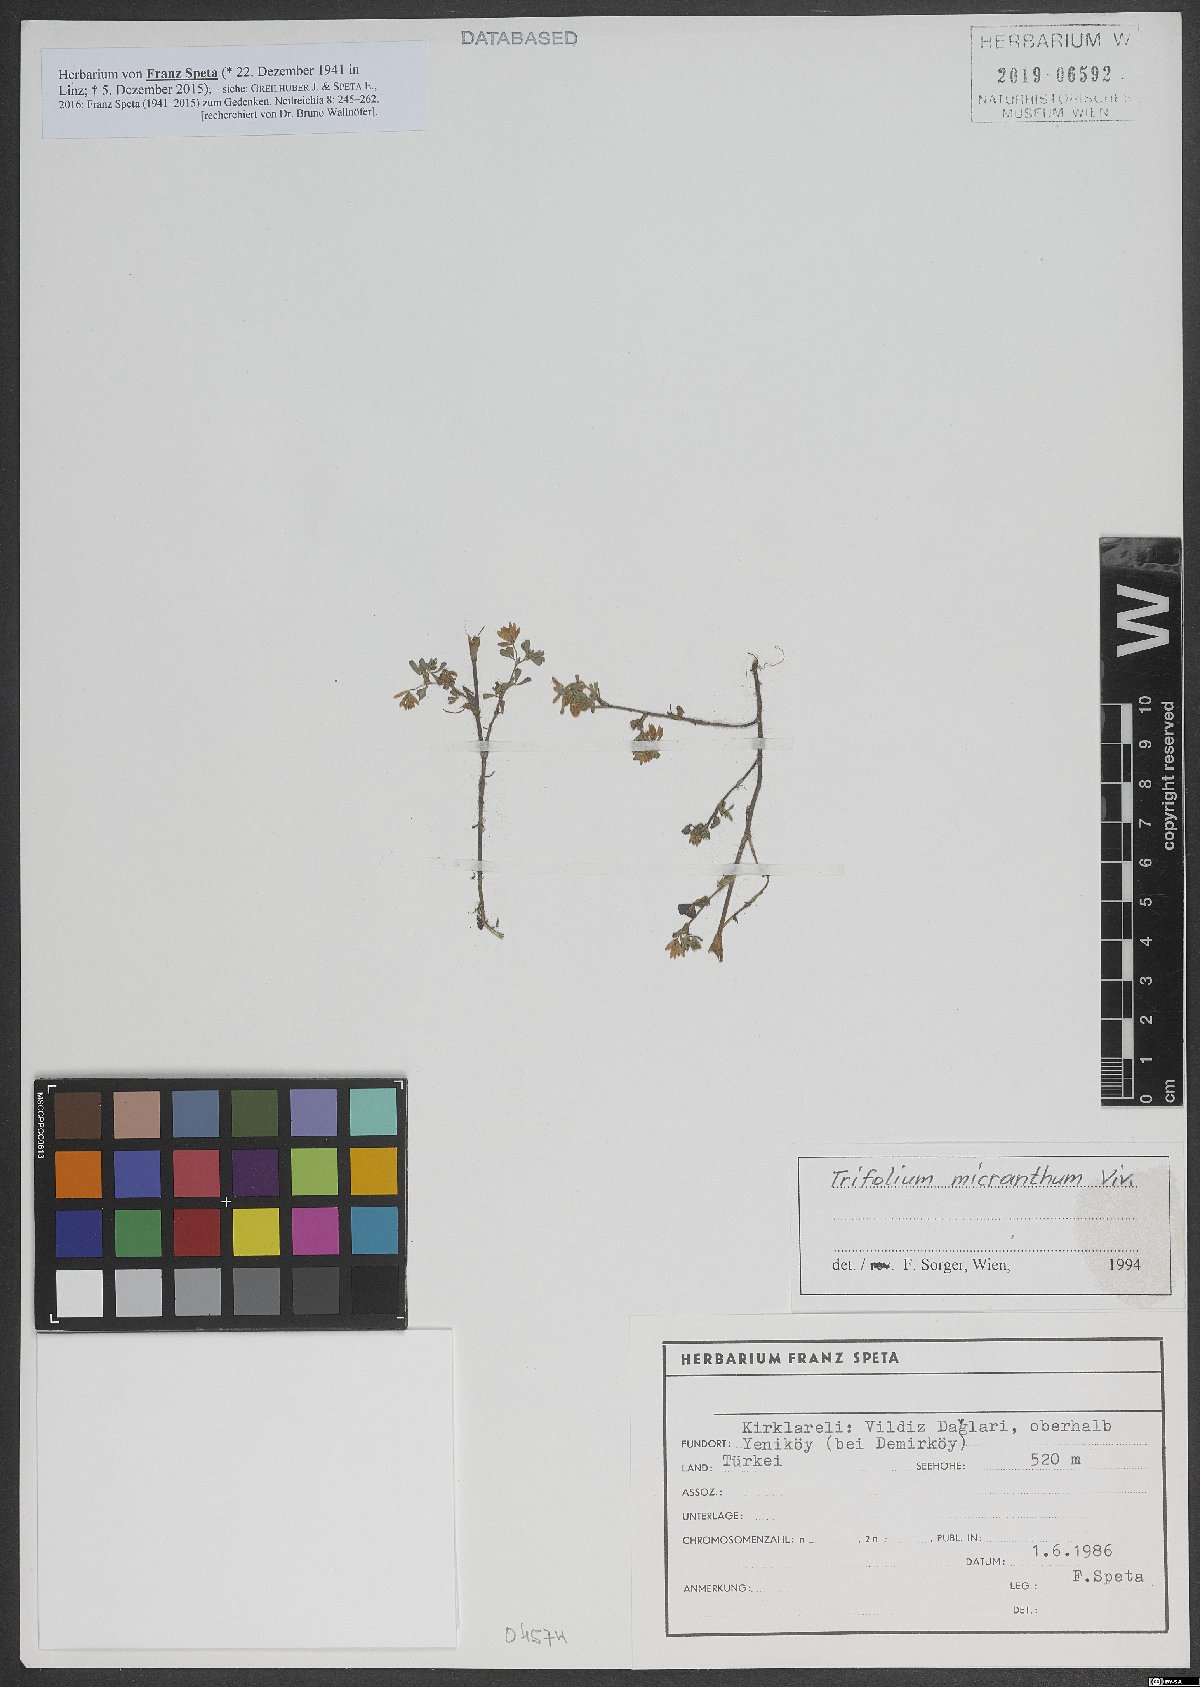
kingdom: Plantae
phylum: Tracheophyta
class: Magnoliopsida
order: Fabales
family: Fabaceae
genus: Trifolium
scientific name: Trifolium micranthum
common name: Slender trefoil
